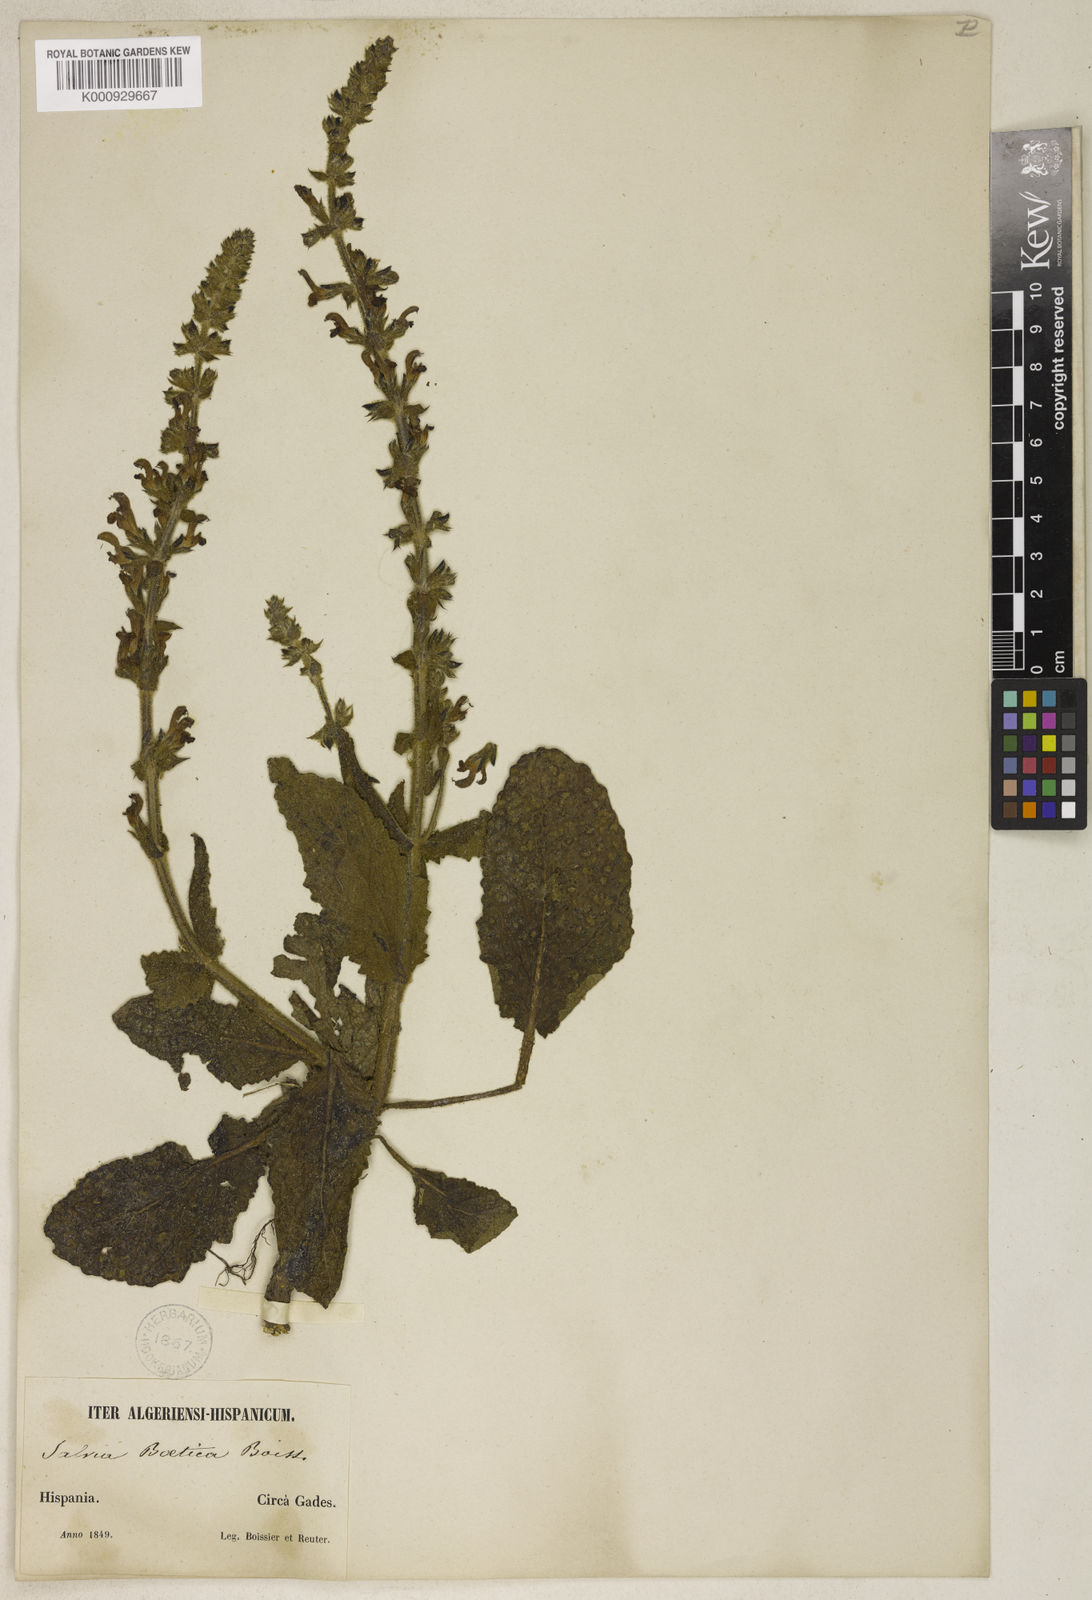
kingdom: Plantae
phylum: Tracheophyta
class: Magnoliopsida
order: Lamiales
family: Lamiaceae
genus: Salvia
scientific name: Salvia sclareoides
